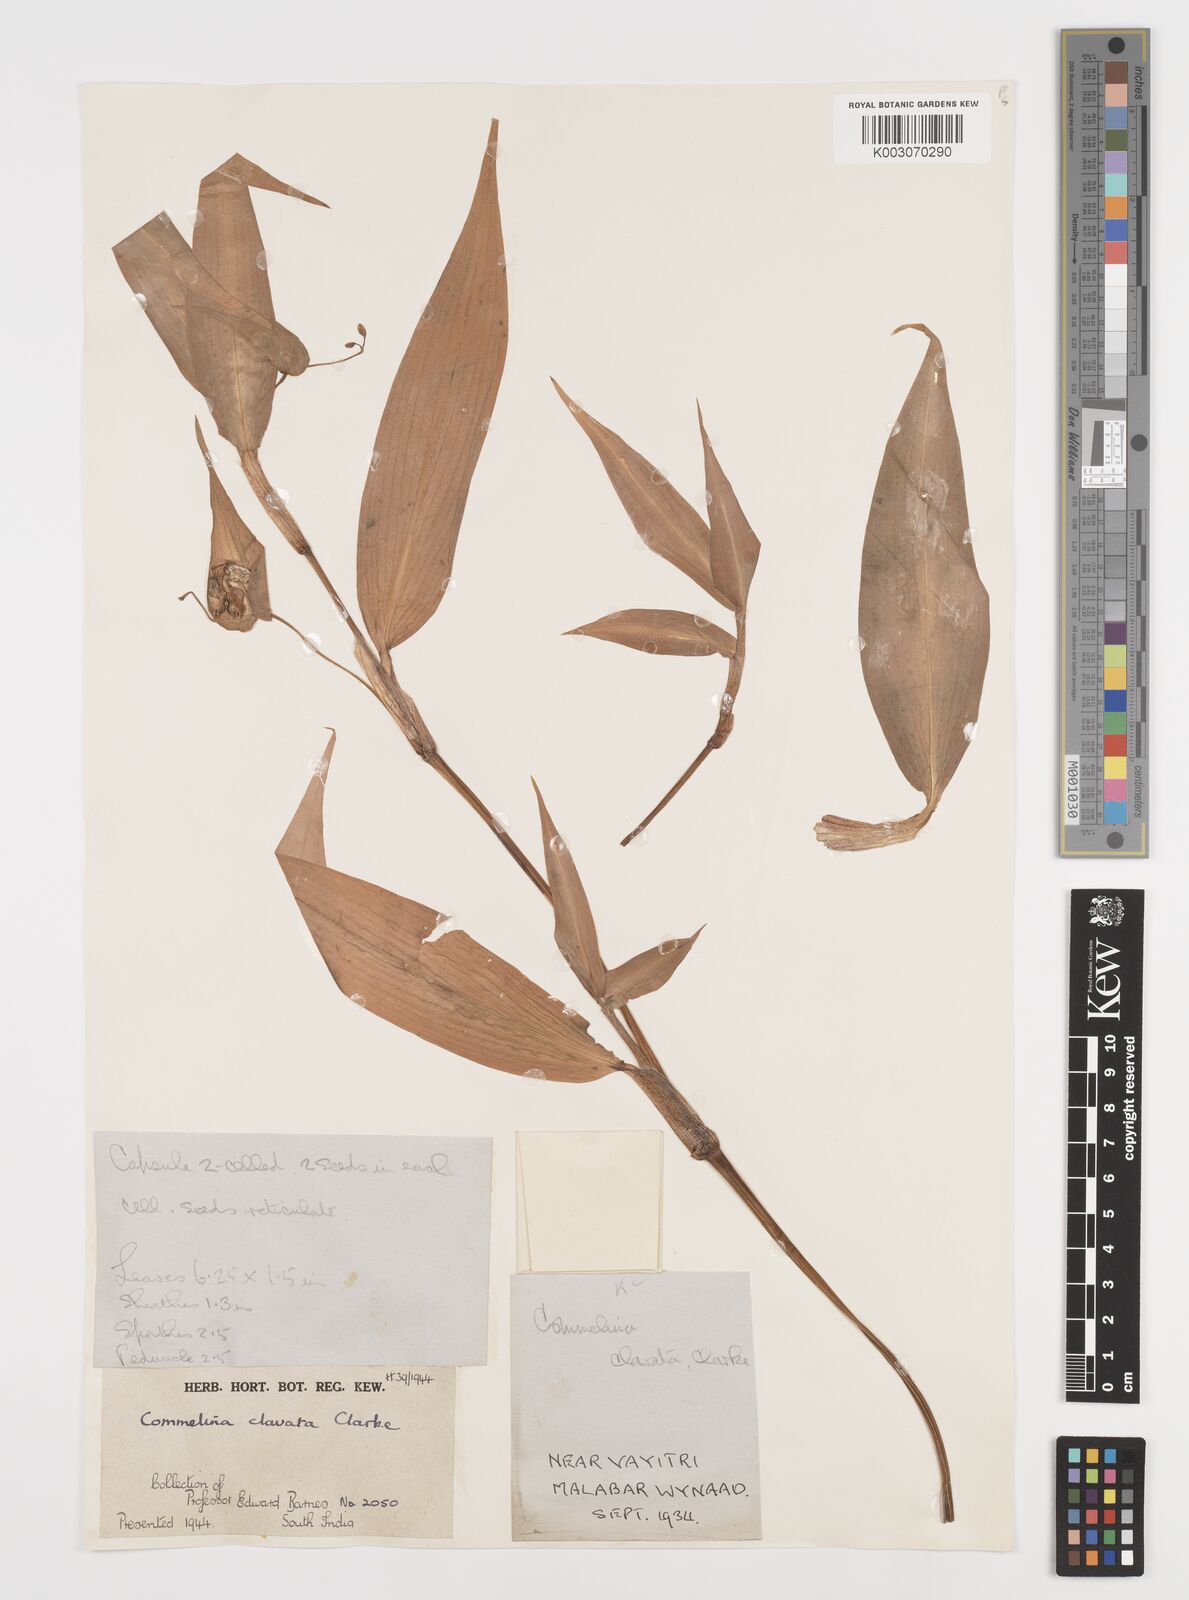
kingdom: Plantae
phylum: Tracheophyta
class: Liliopsida
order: Commelinales
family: Commelinaceae
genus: Commelina
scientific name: Commelina clavata
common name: Willow leaved dayflower
